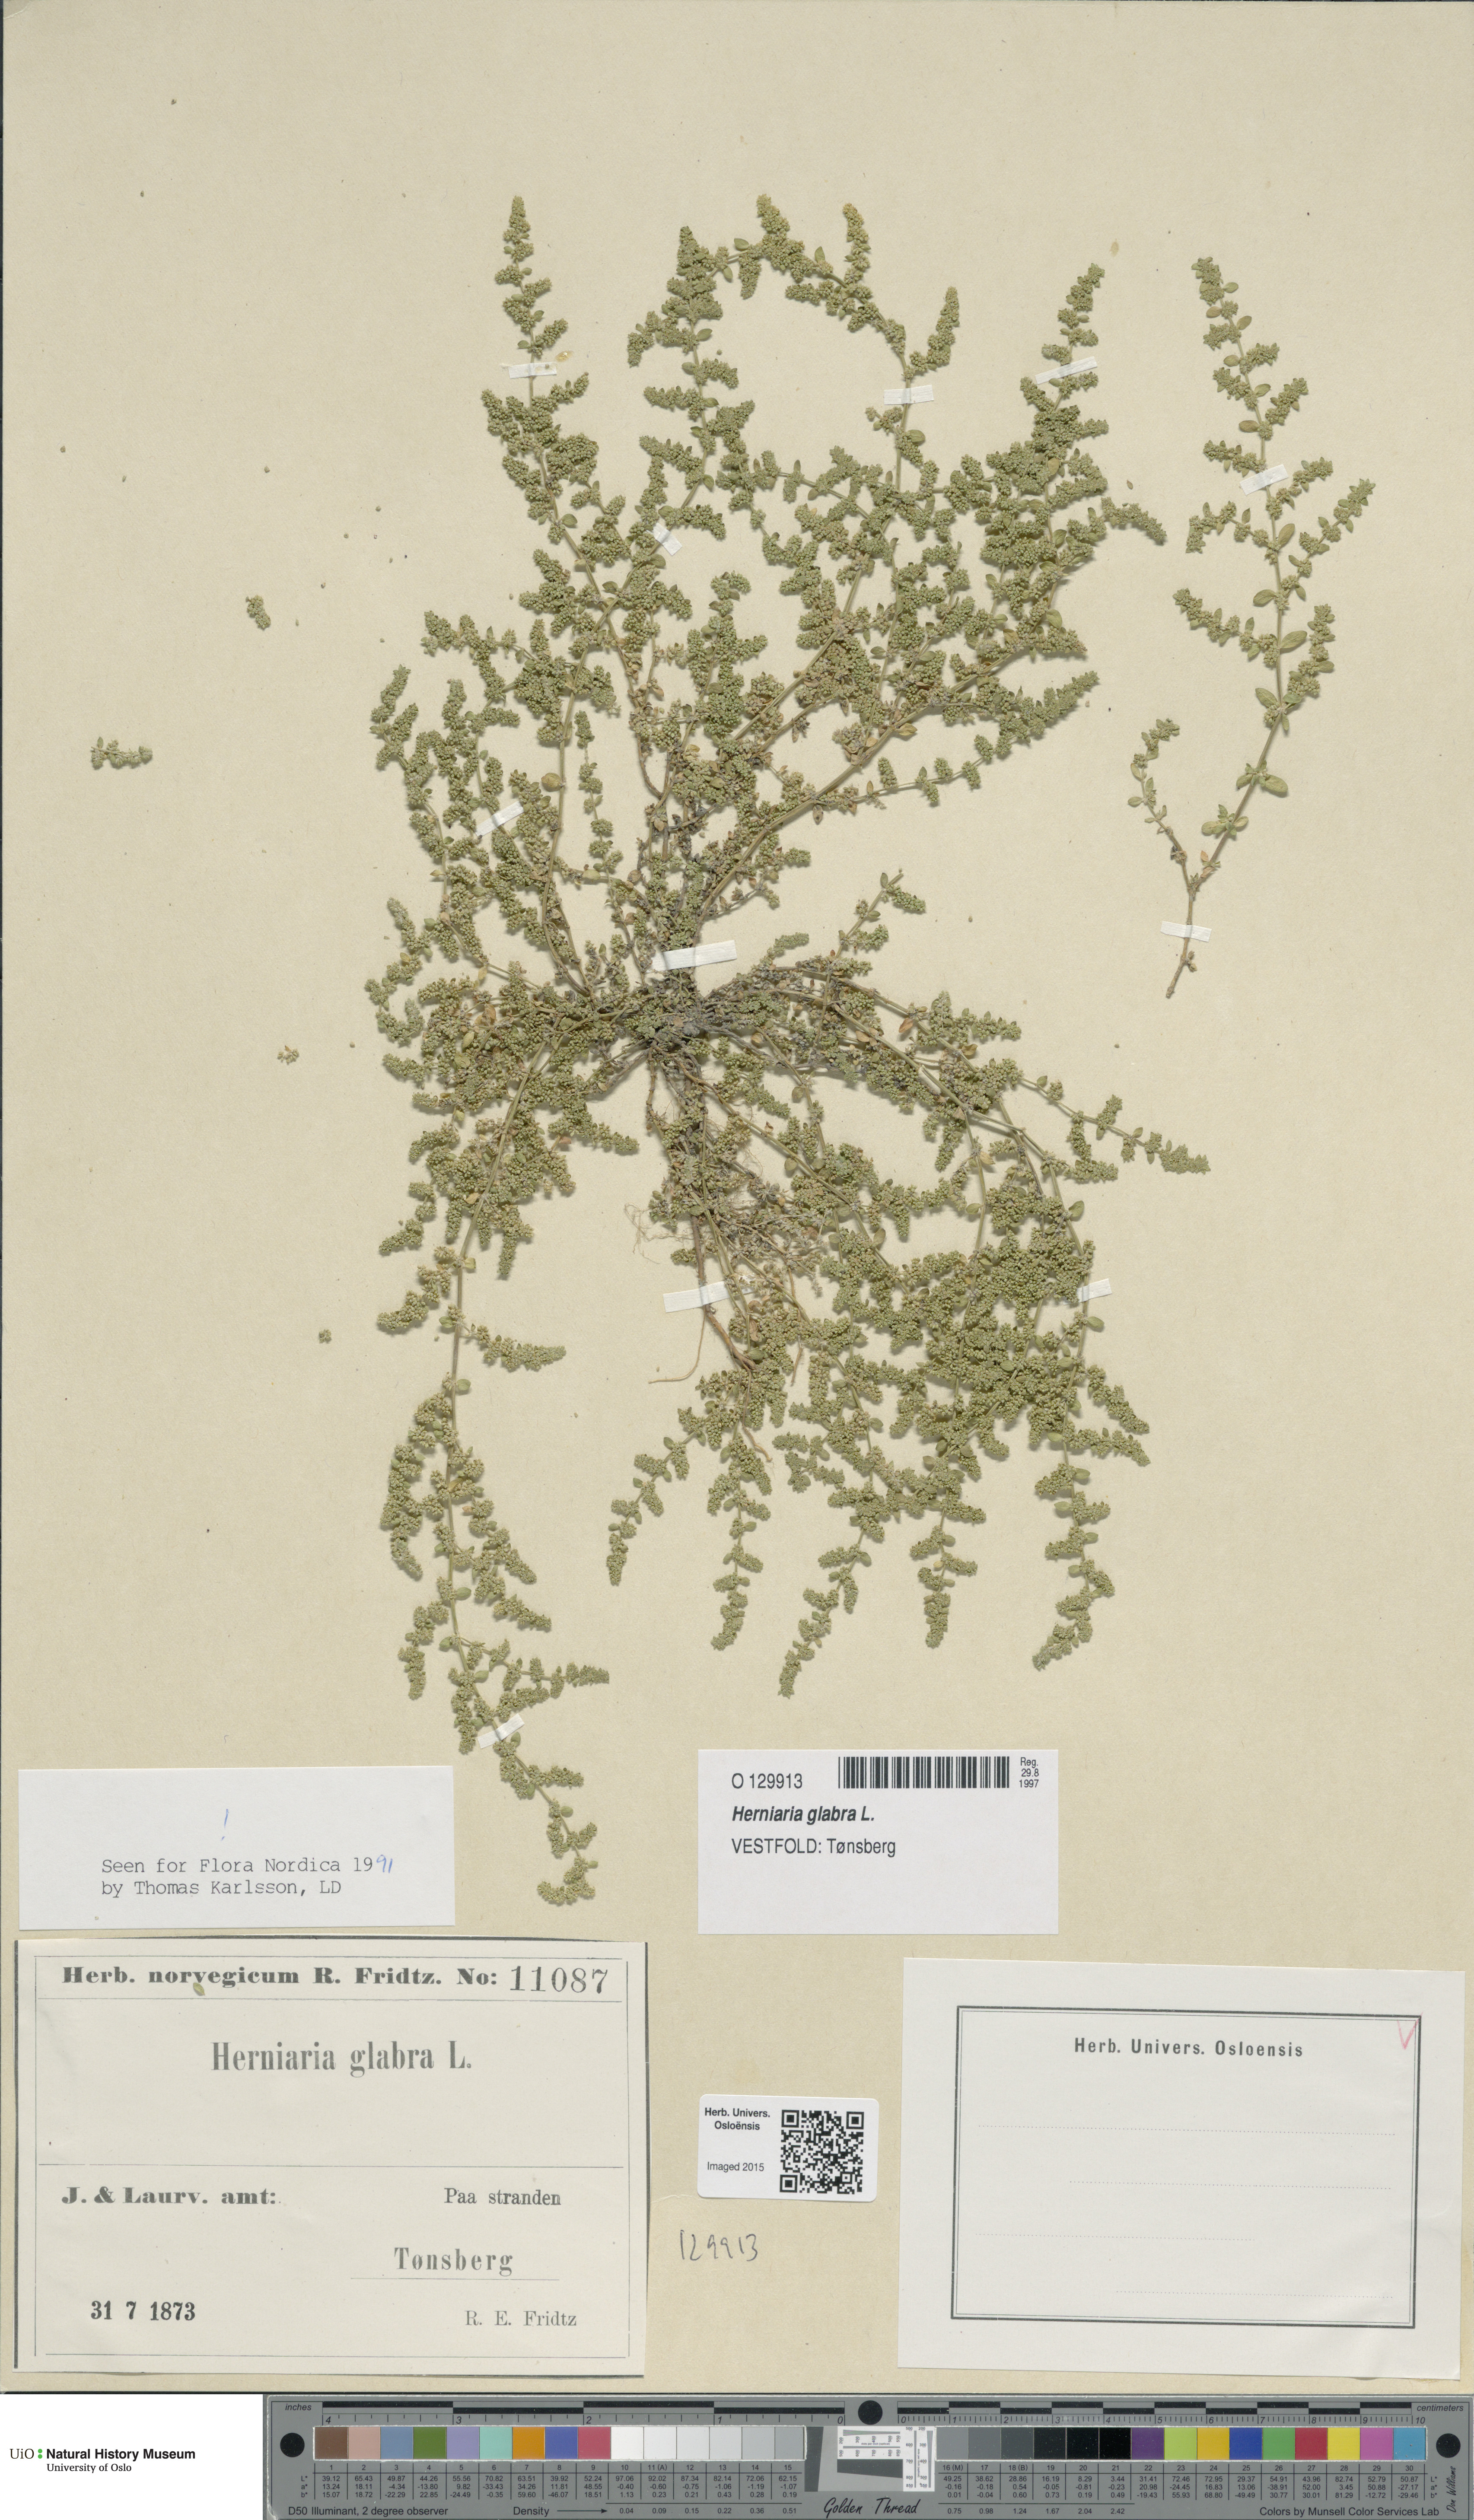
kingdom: Plantae
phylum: Tracheophyta
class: Magnoliopsida
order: Caryophyllales
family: Caryophyllaceae
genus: Herniaria
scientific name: Herniaria glabra
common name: Smooth rupturewort
